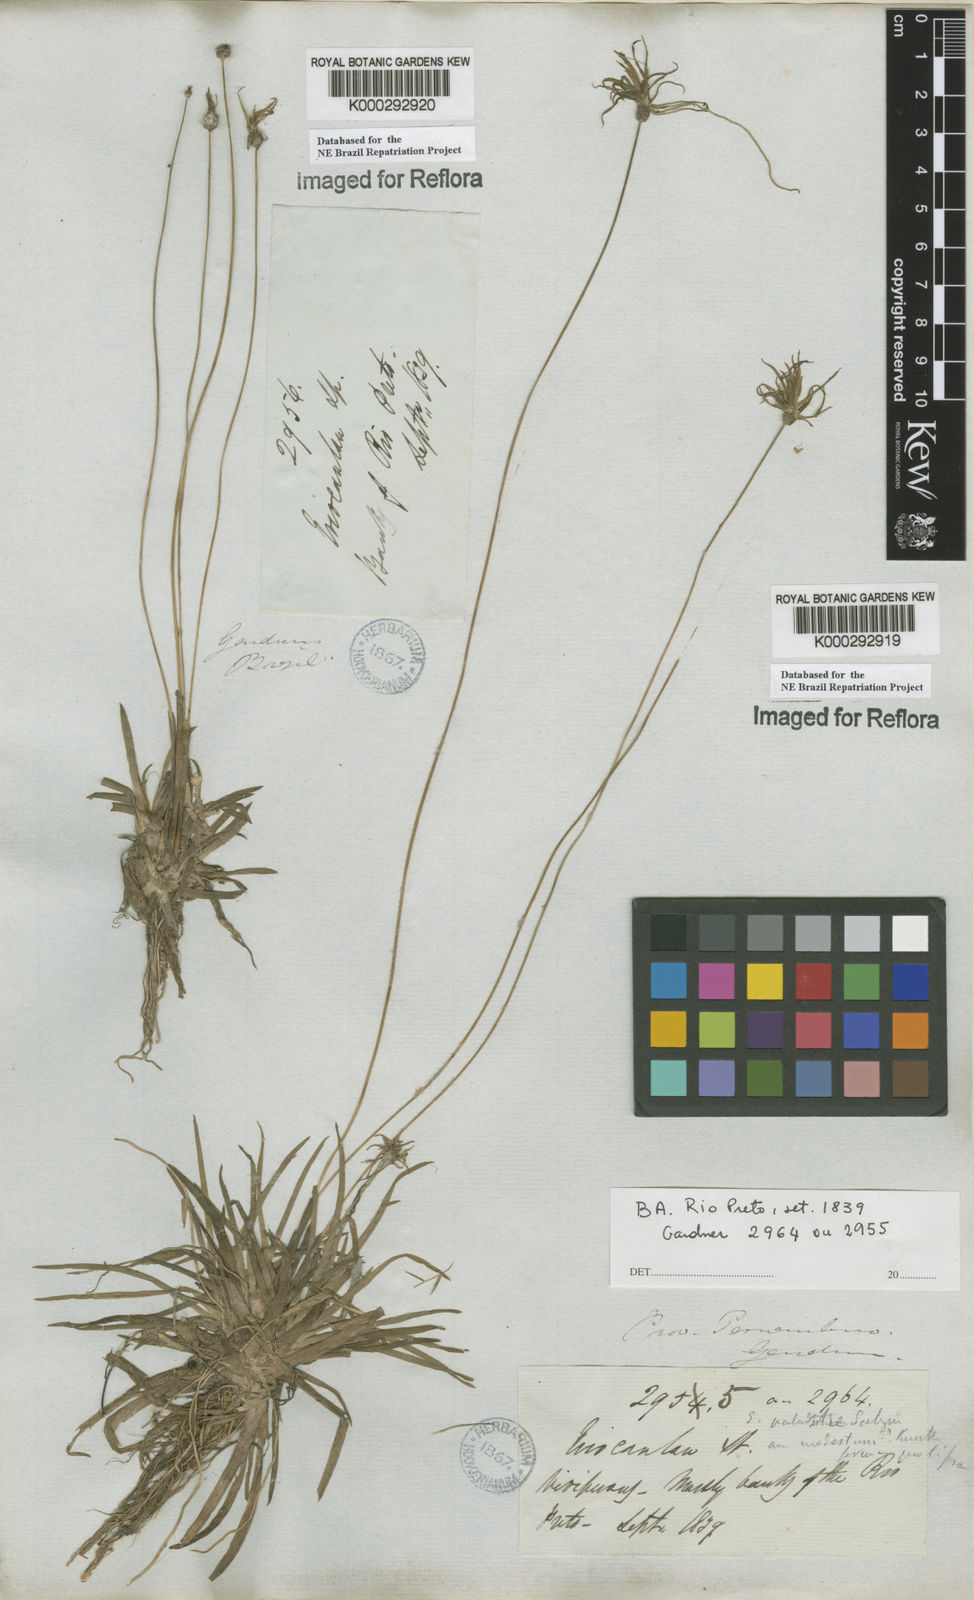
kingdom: Plantae
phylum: Tracheophyta
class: Liliopsida
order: Poales
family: Eriocaulaceae
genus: Eriocaulon
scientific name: Eriocaulon modestum
